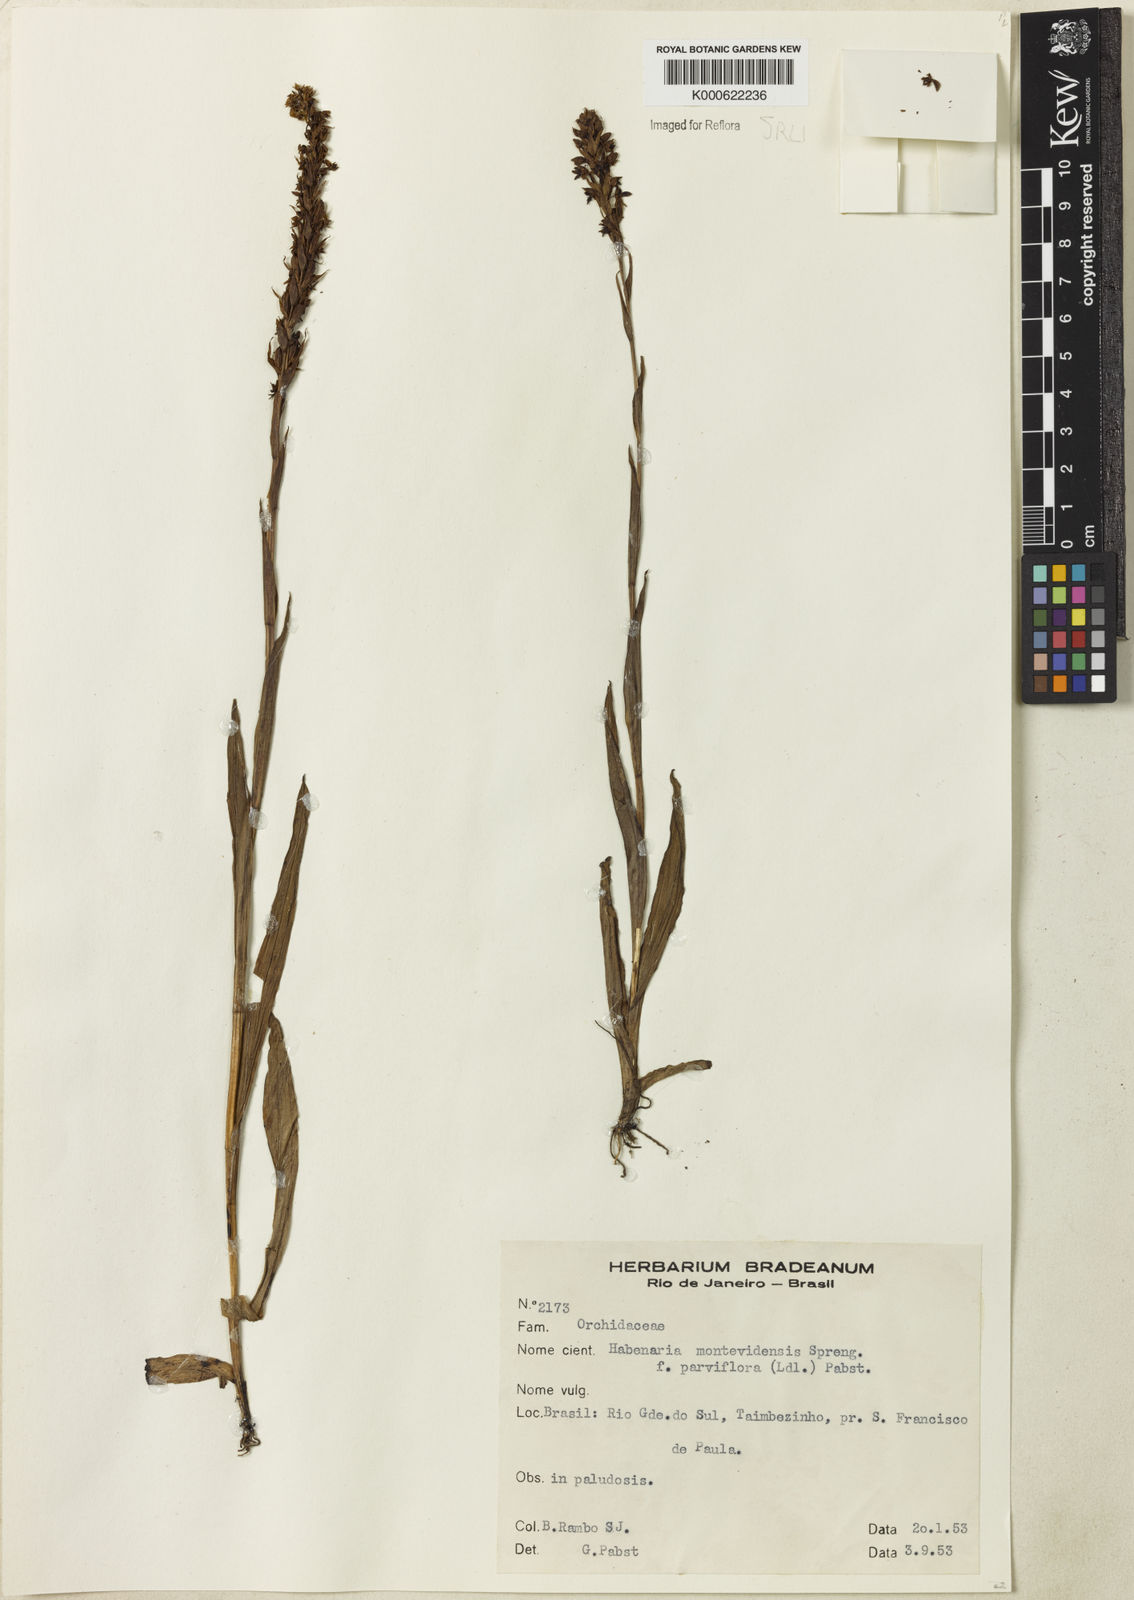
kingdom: Plantae
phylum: Tracheophyta
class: Liliopsida
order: Asparagales
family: Orchidaceae
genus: Habenaria
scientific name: Habenaria parviflora
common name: Small flowered habenaria
